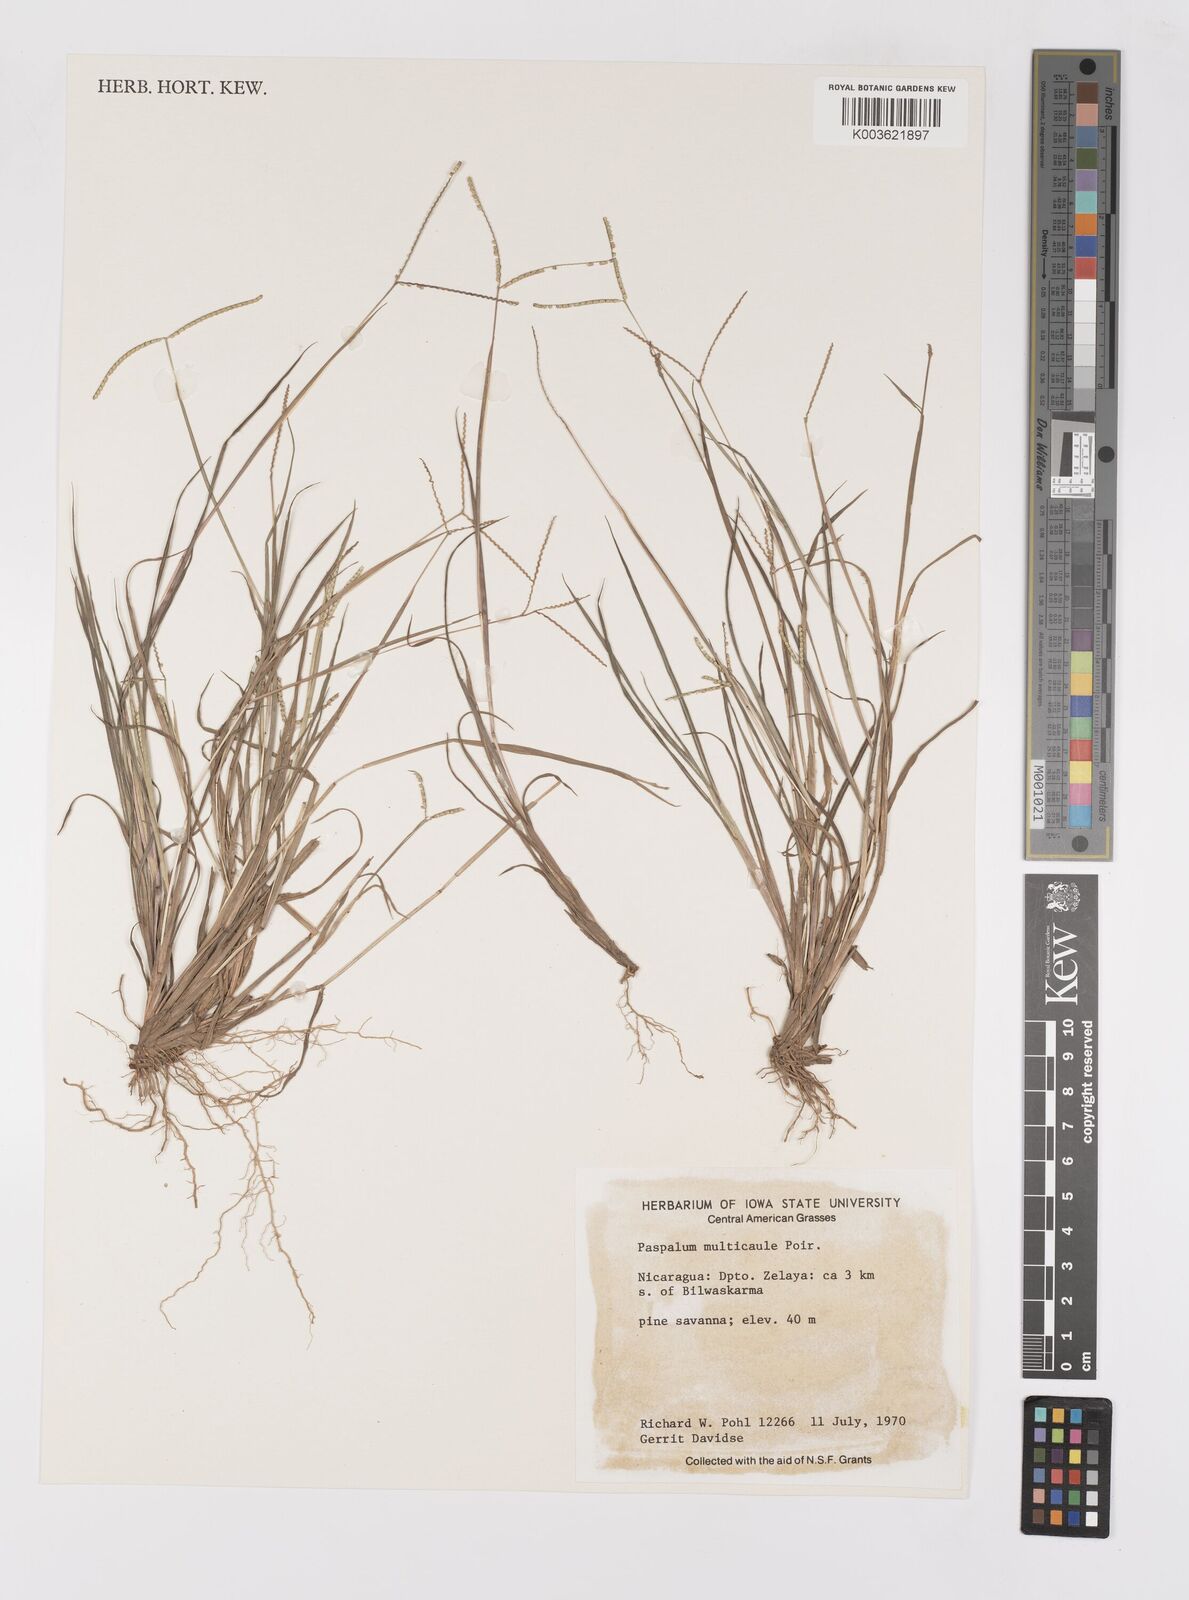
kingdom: Plantae
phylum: Tracheophyta
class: Liliopsida
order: Poales
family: Poaceae
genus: Paspalum
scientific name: Paspalum multicaule
